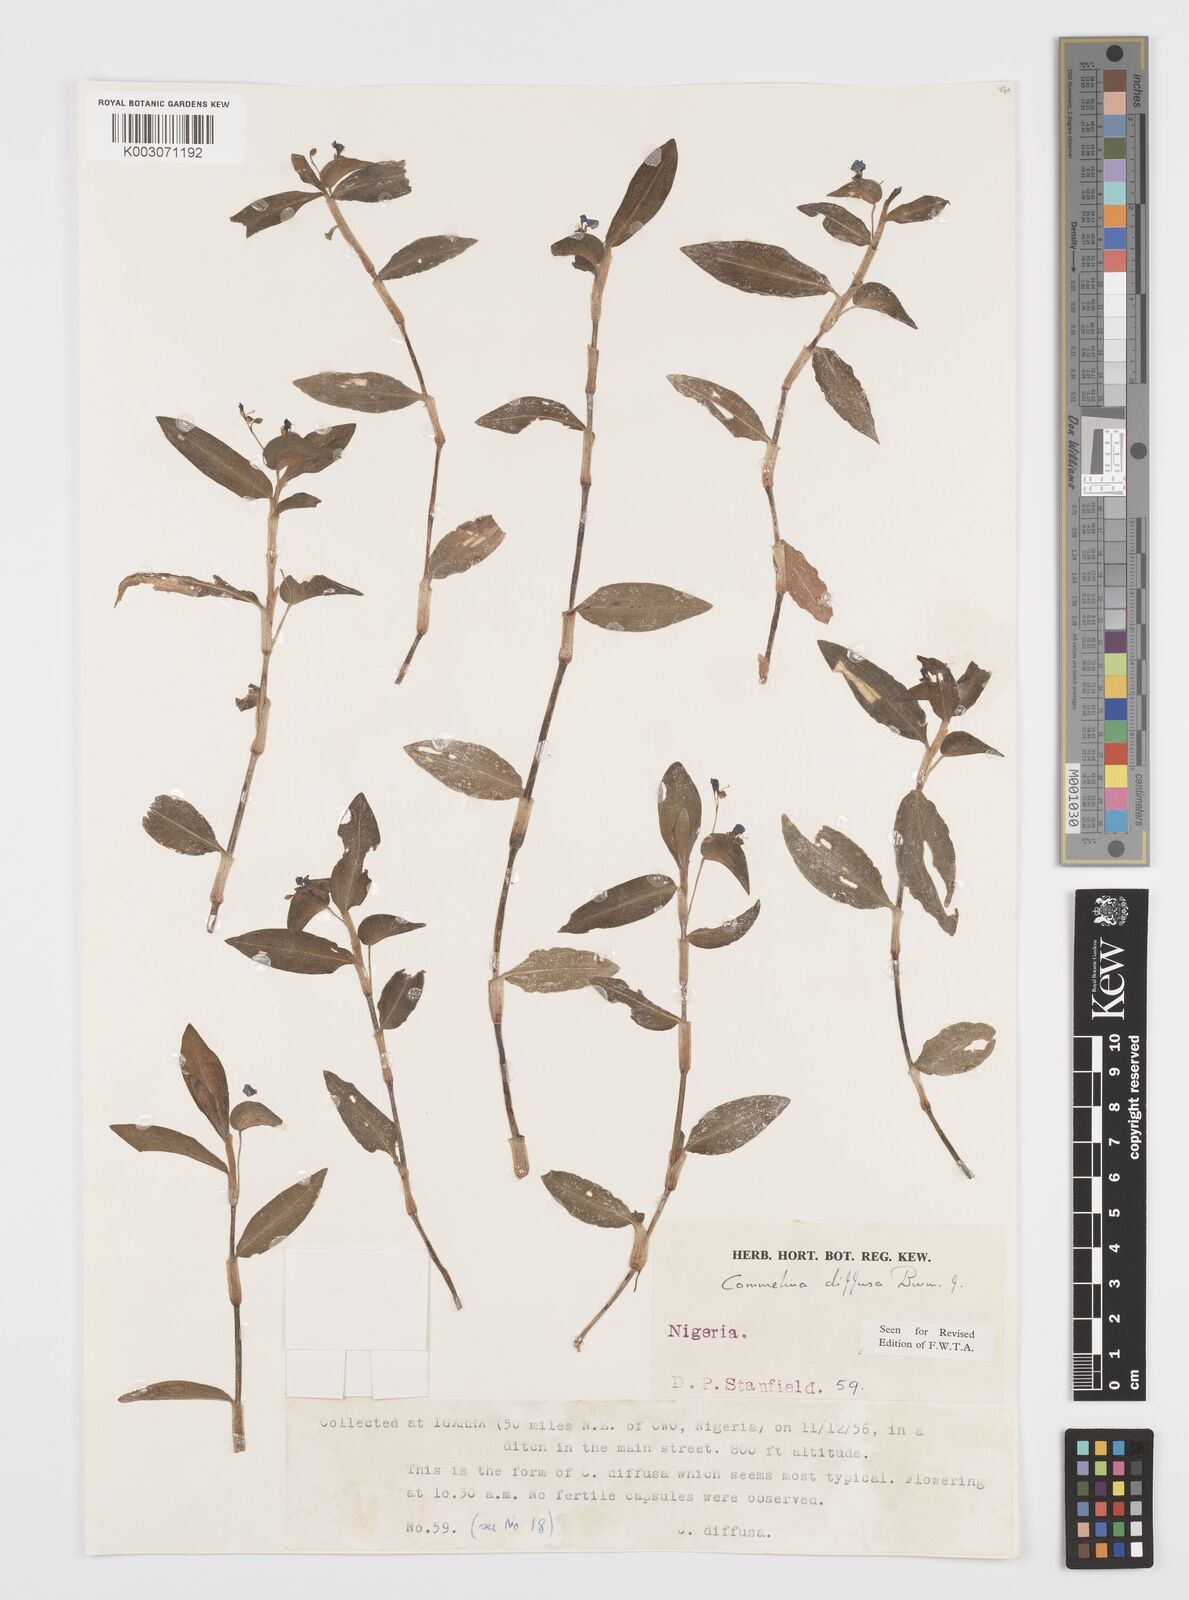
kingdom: Plantae
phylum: Tracheophyta
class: Liliopsida
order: Commelinales
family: Commelinaceae
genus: Commelina
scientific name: Commelina diffusa
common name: Climbing dayflower
